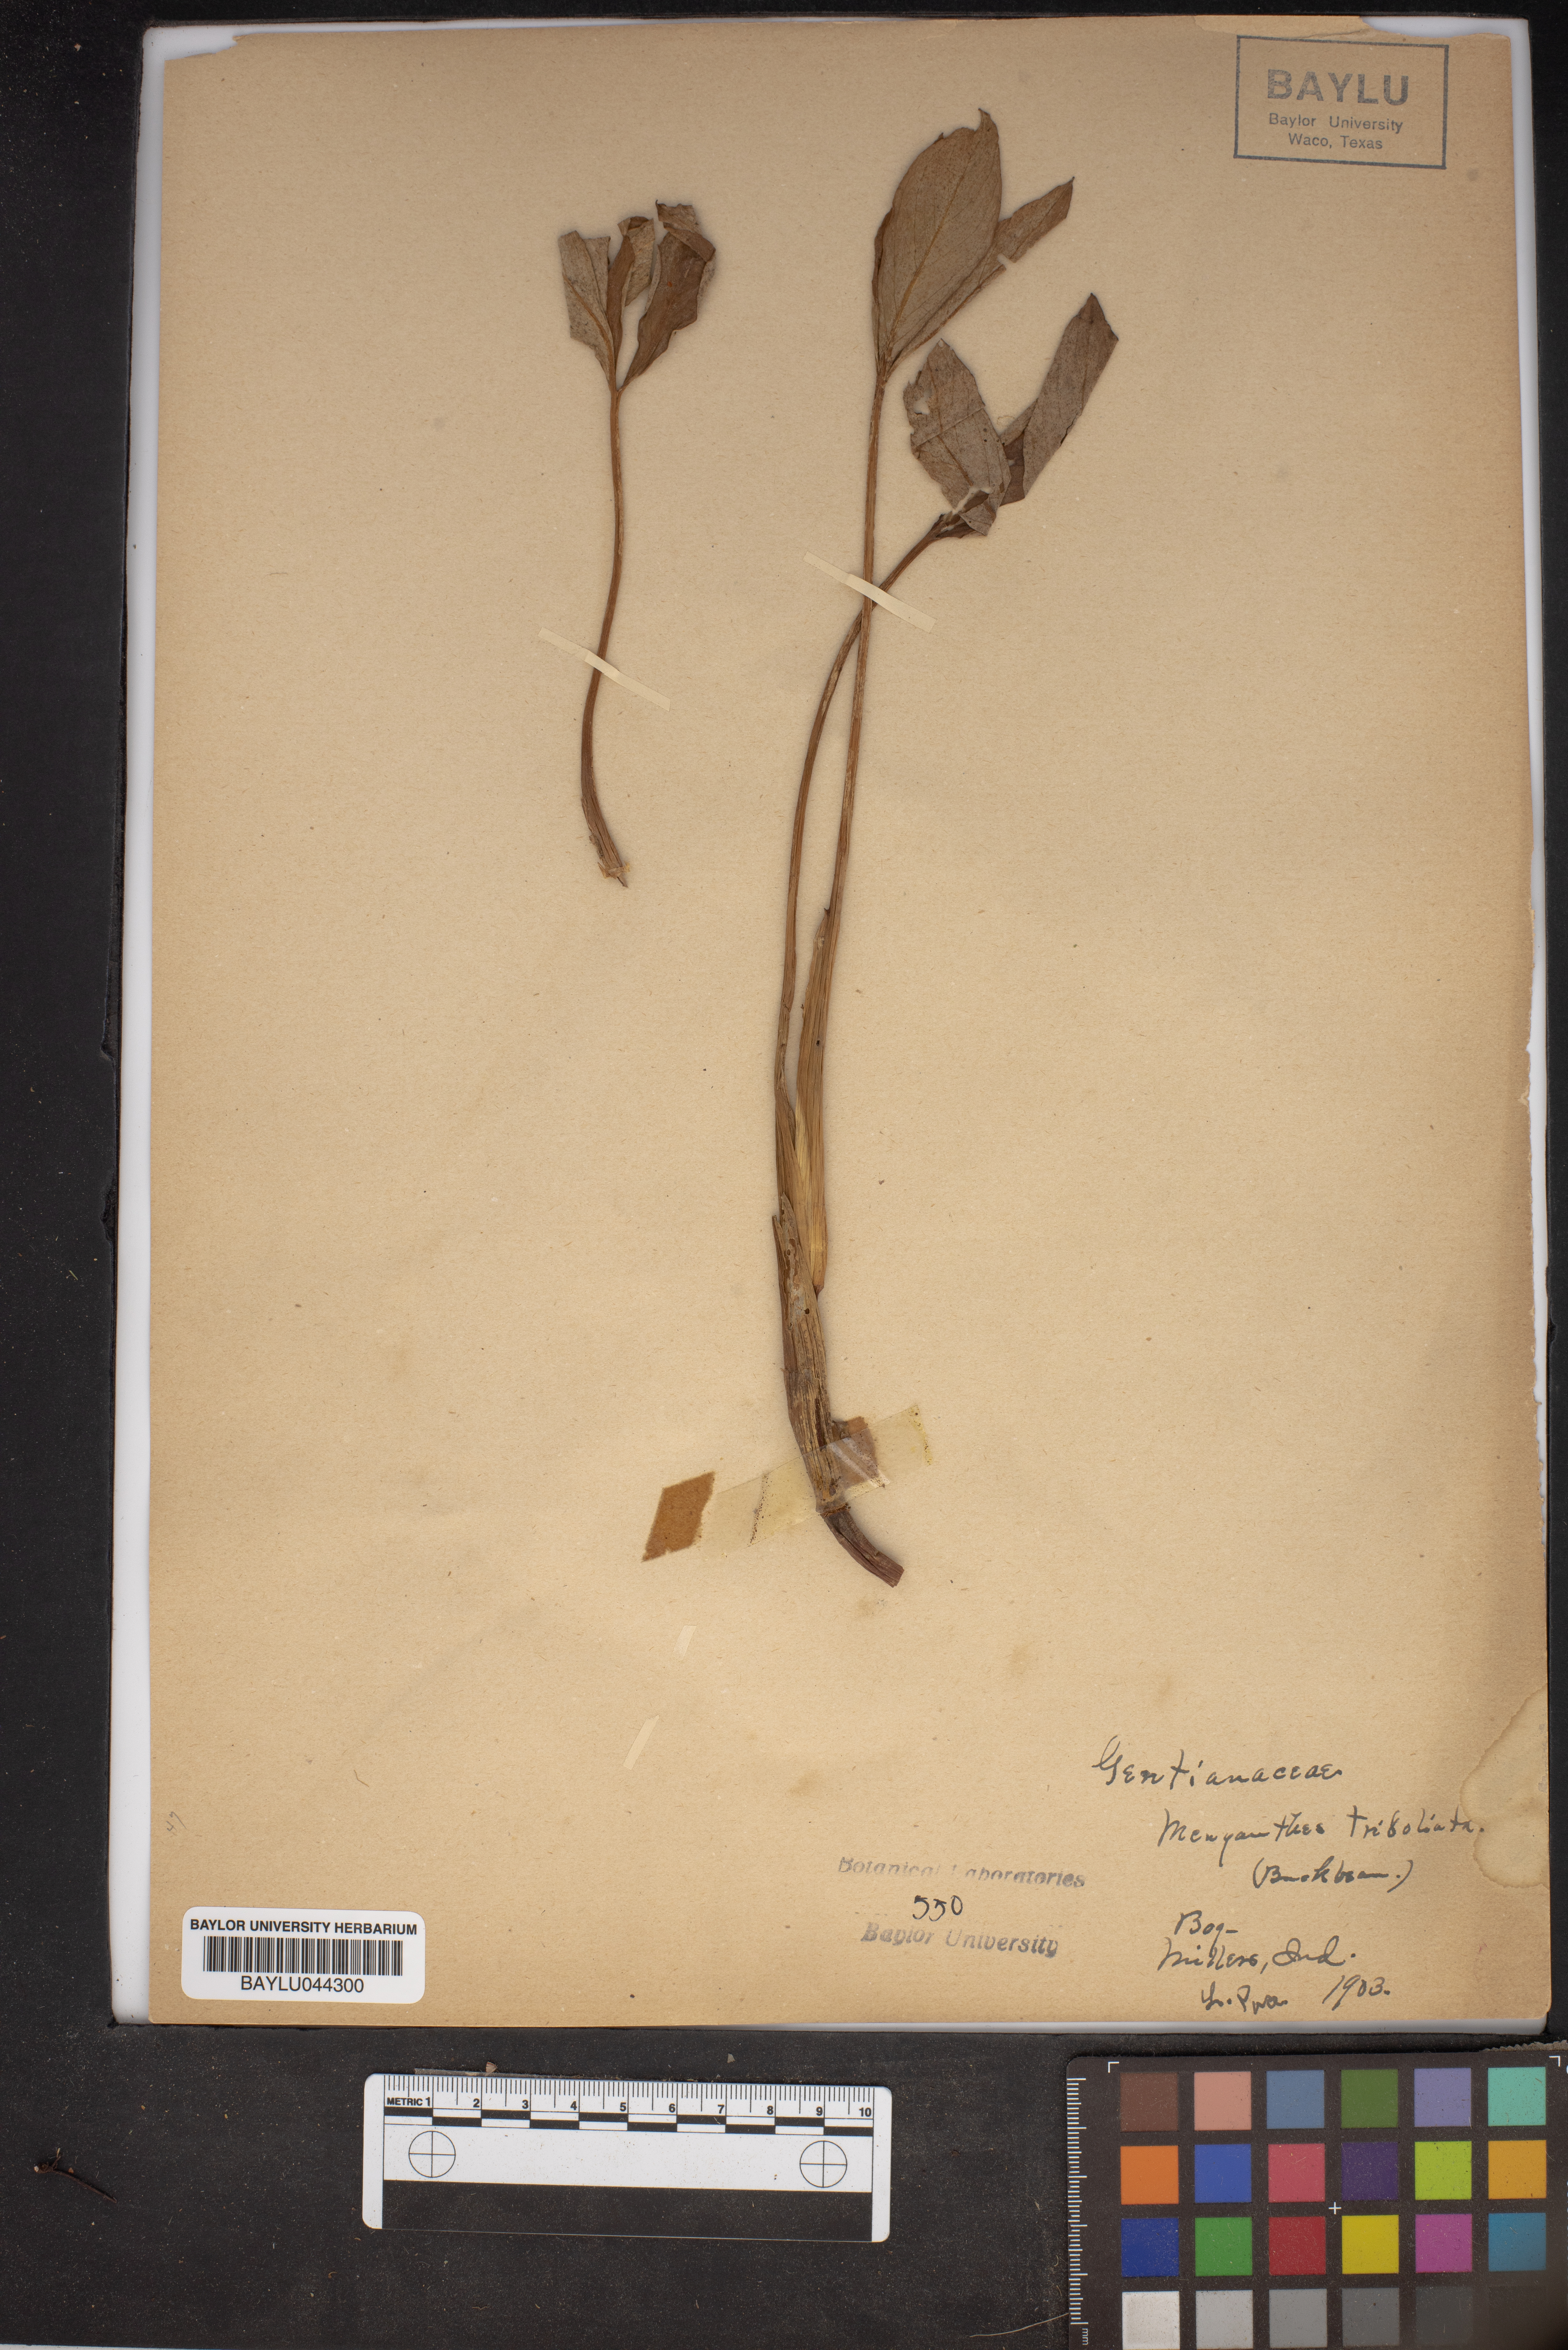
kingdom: Plantae
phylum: Tracheophyta
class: Magnoliopsida
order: Asterales
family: Menyanthaceae
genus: Menyanthes
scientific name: Menyanthes trifoliata
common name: Bogbean
